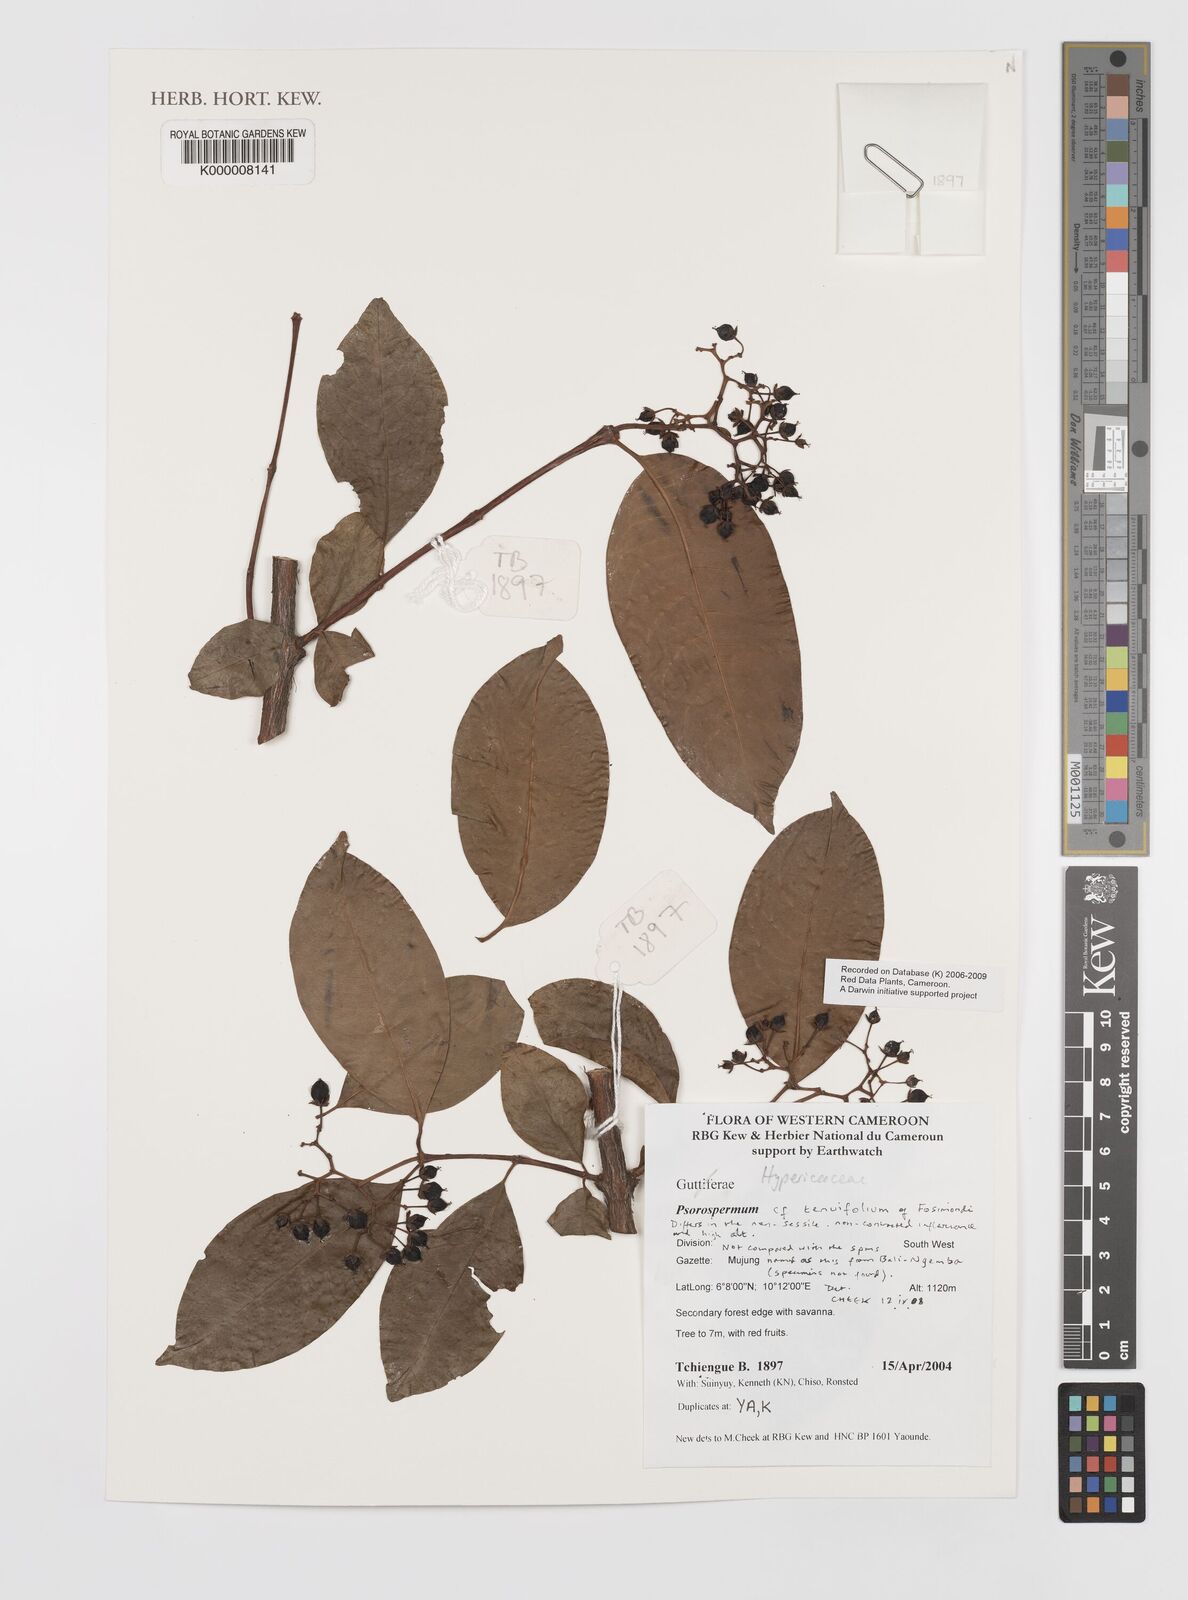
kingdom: Plantae
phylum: Tracheophyta
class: Magnoliopsida
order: Malpighiales
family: Hypericaceae
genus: Psorospermum
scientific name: Psorospermum tenuifolium
